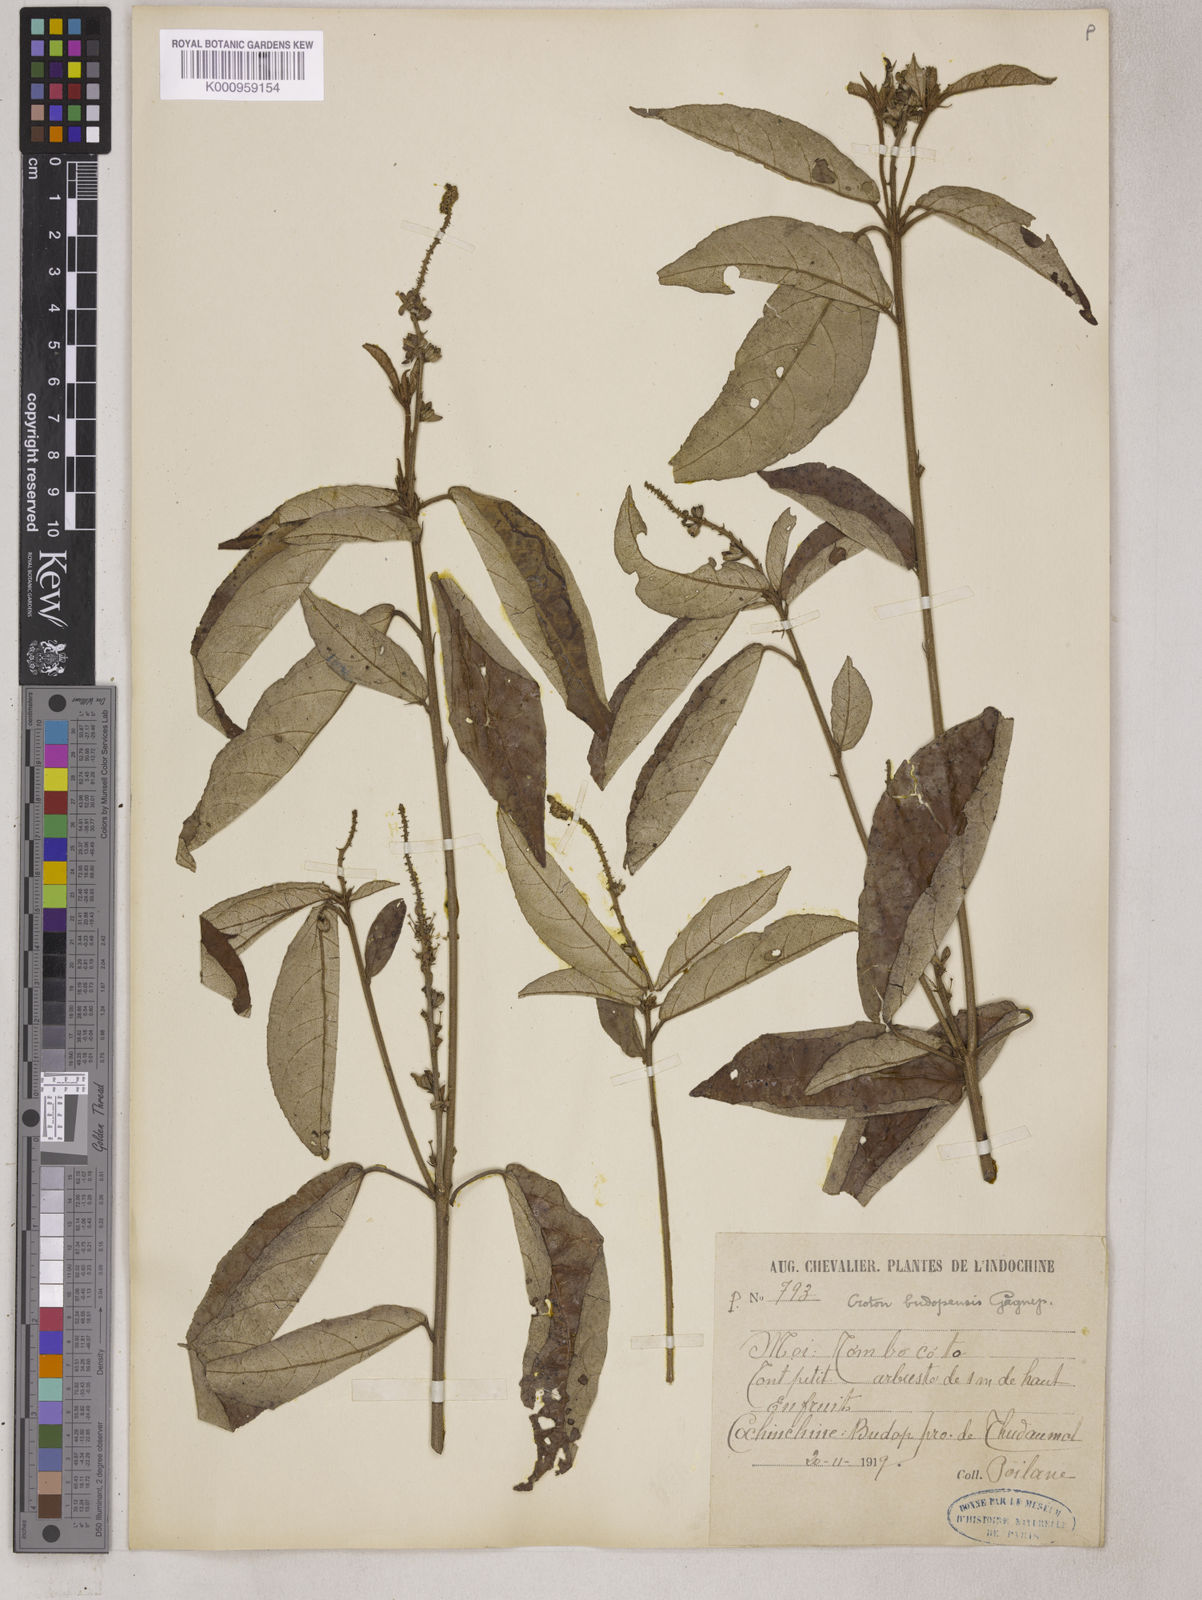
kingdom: Plantae
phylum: Tracheophyta
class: Magnoliopsida
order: Malpighiales
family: Euphorbiaceae
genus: Croton
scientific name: Croton argyratus
